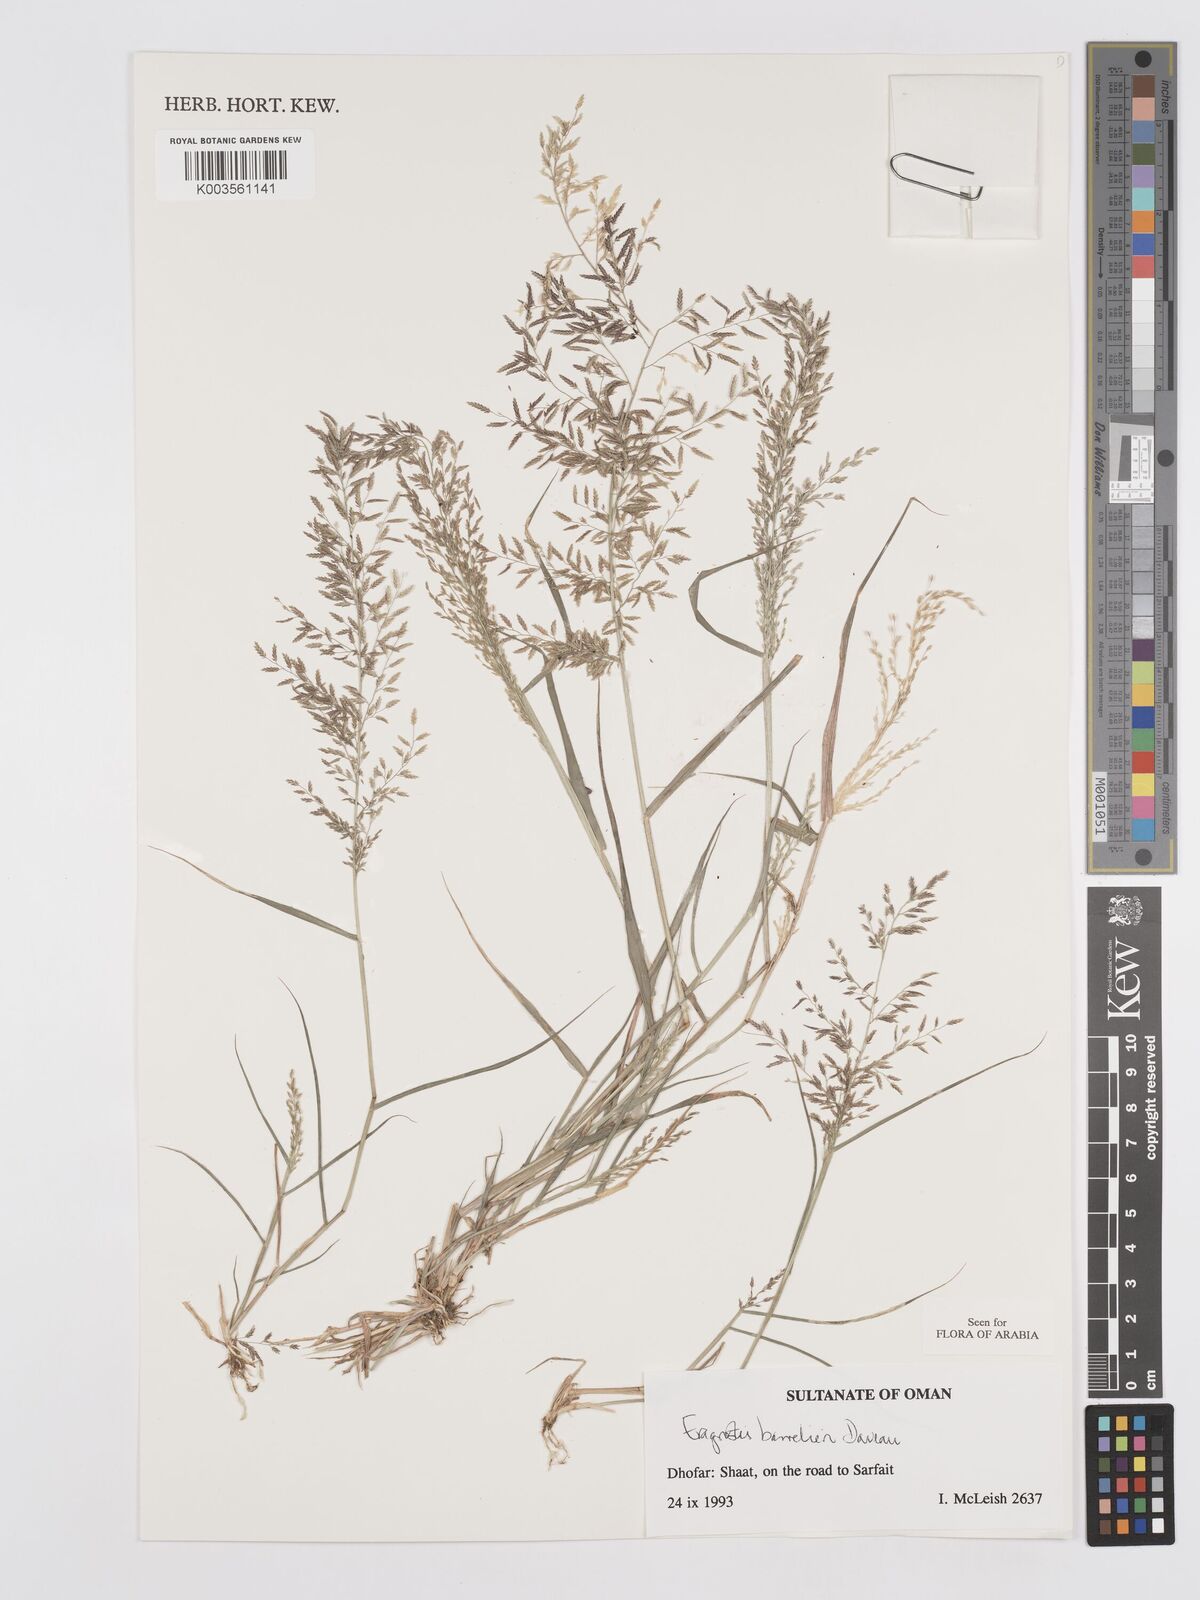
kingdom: Plantae
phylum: Tracheophyta
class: Liliopsida
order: Poales
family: Poaceae
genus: Eragrostis
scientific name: Eragrostis barrelieri
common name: Mediterranean lovegrass
